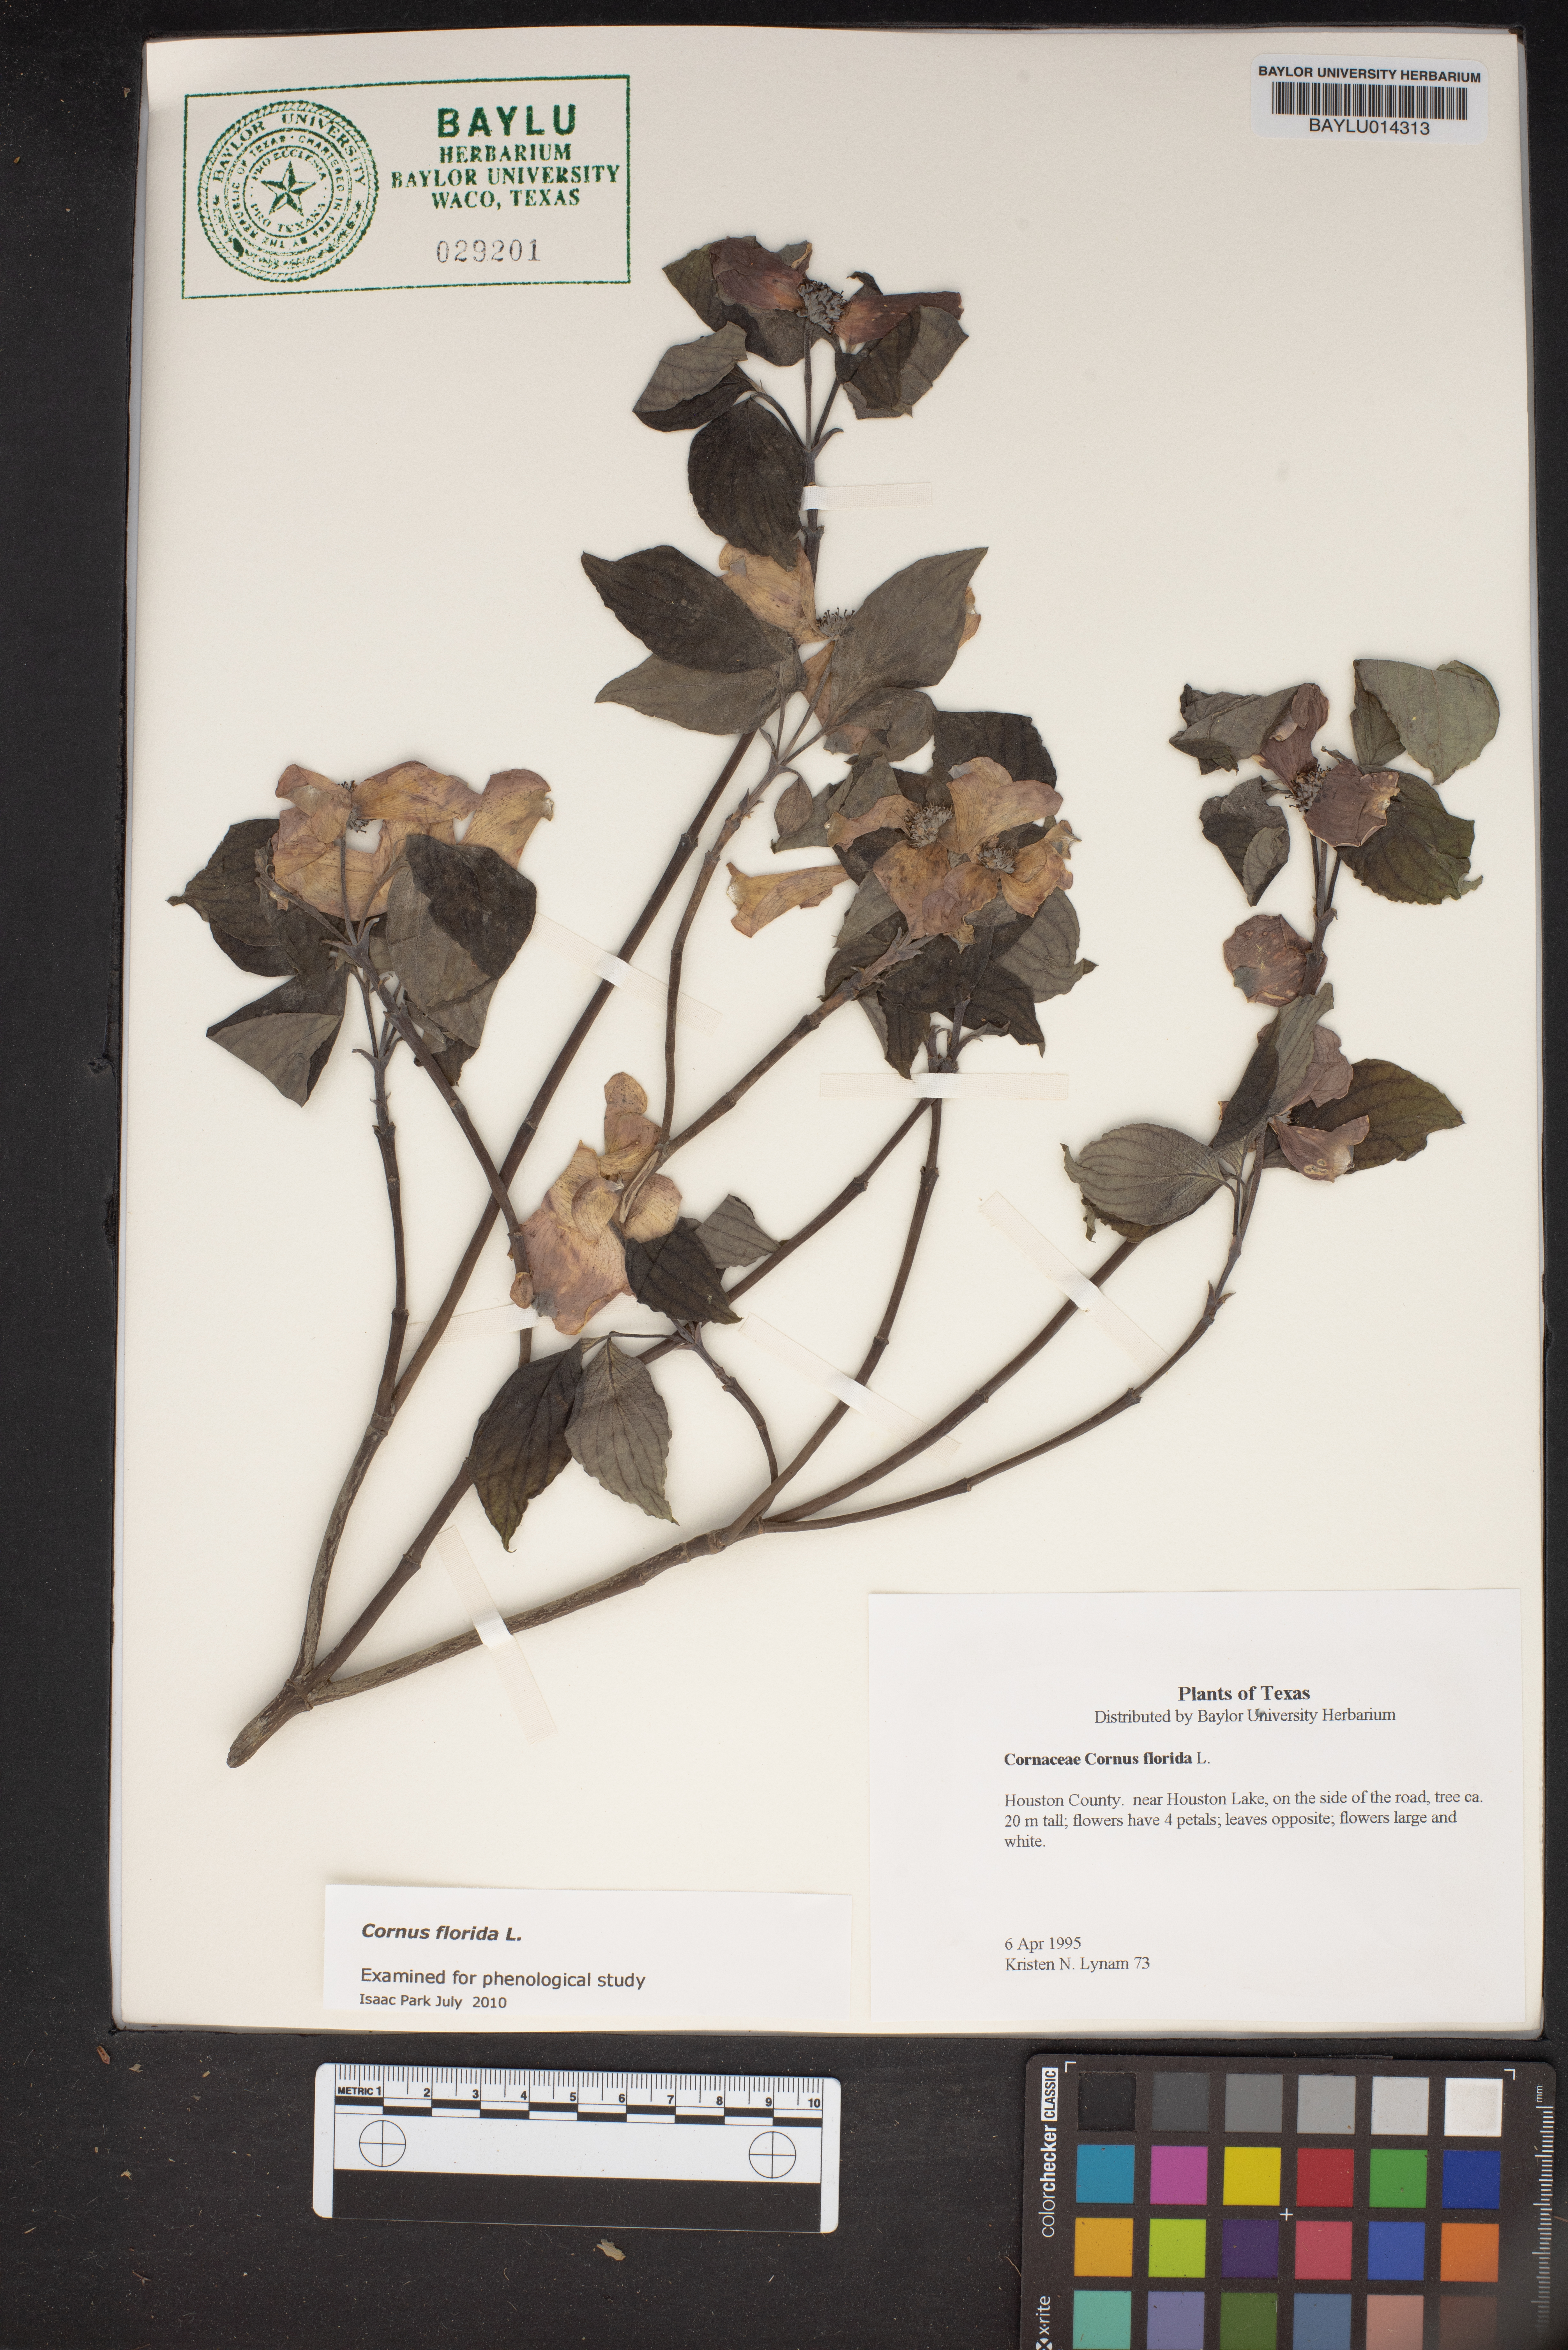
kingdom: Plantae
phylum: Tracheophyta
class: Magnoliopsida
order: Cornales
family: Cornaceae
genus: Cornus
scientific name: Cornus florida
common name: Flowering dogwood
